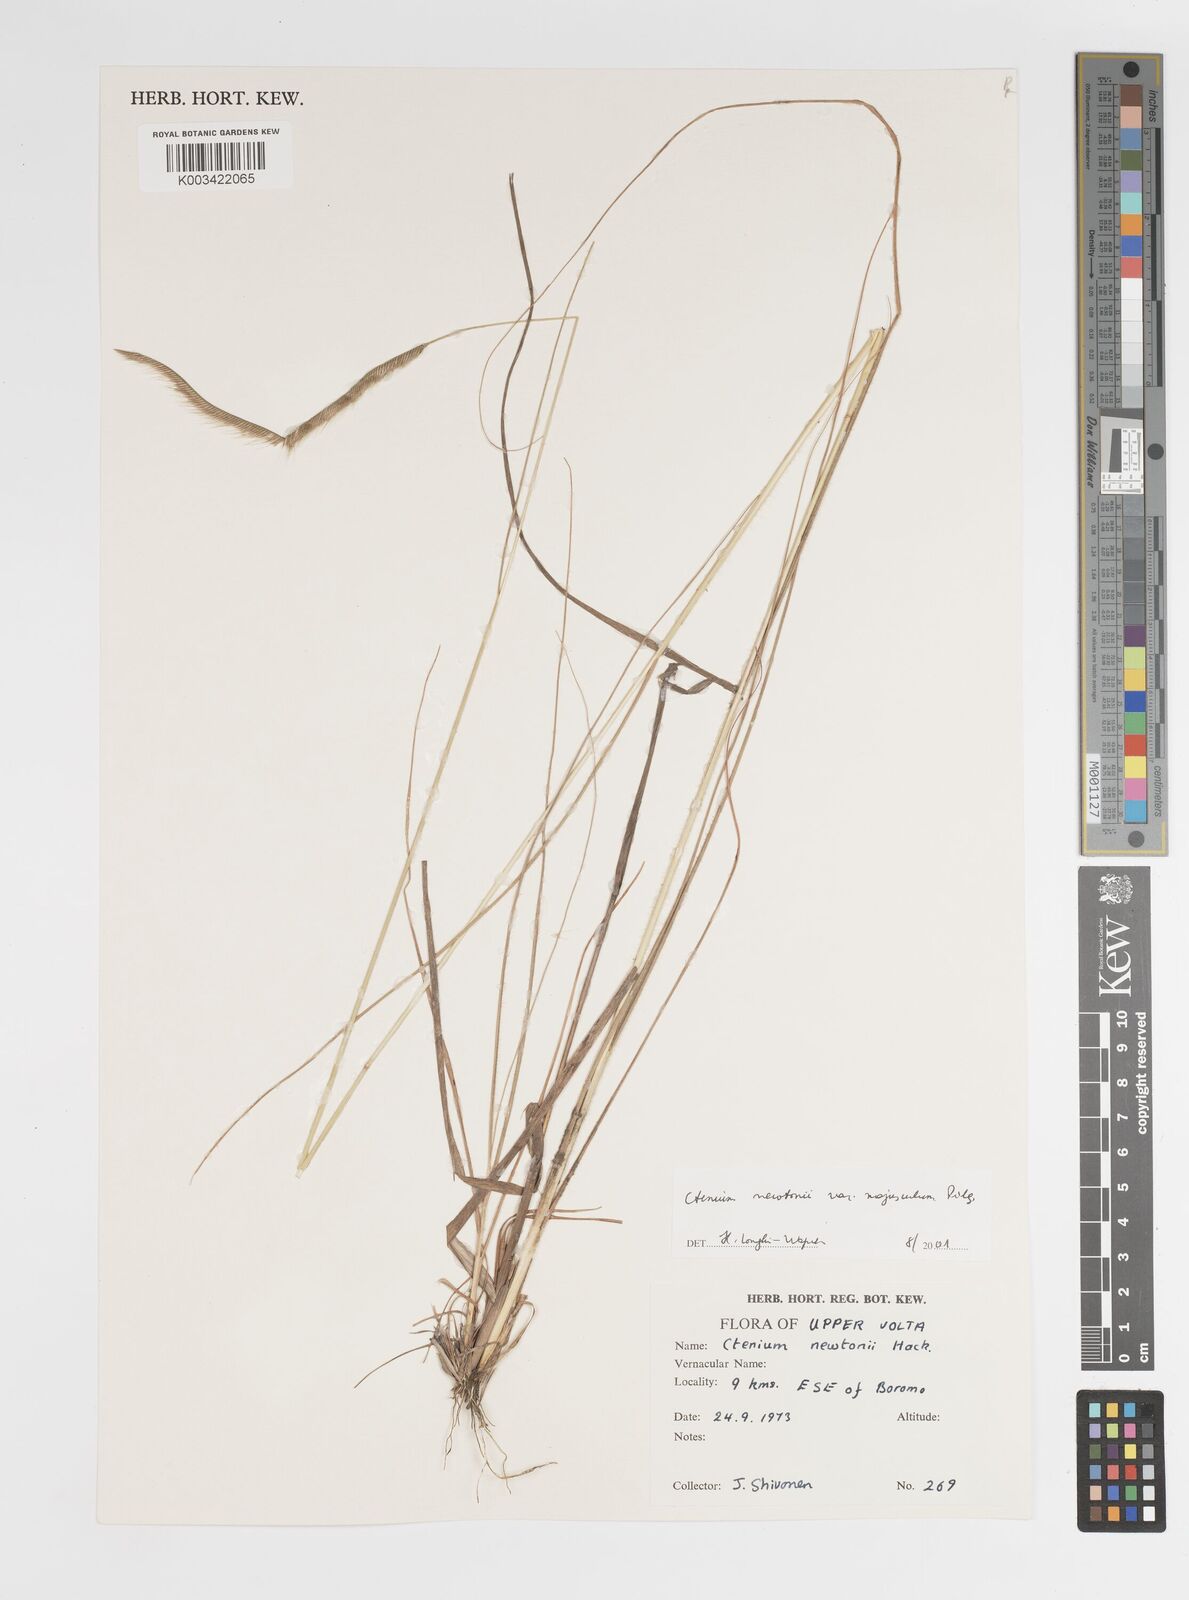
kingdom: Plantae
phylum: Tracheophyta
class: Liliopsida
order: Poales
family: Poaceae
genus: Ctenium
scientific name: Ctenium newtonii
